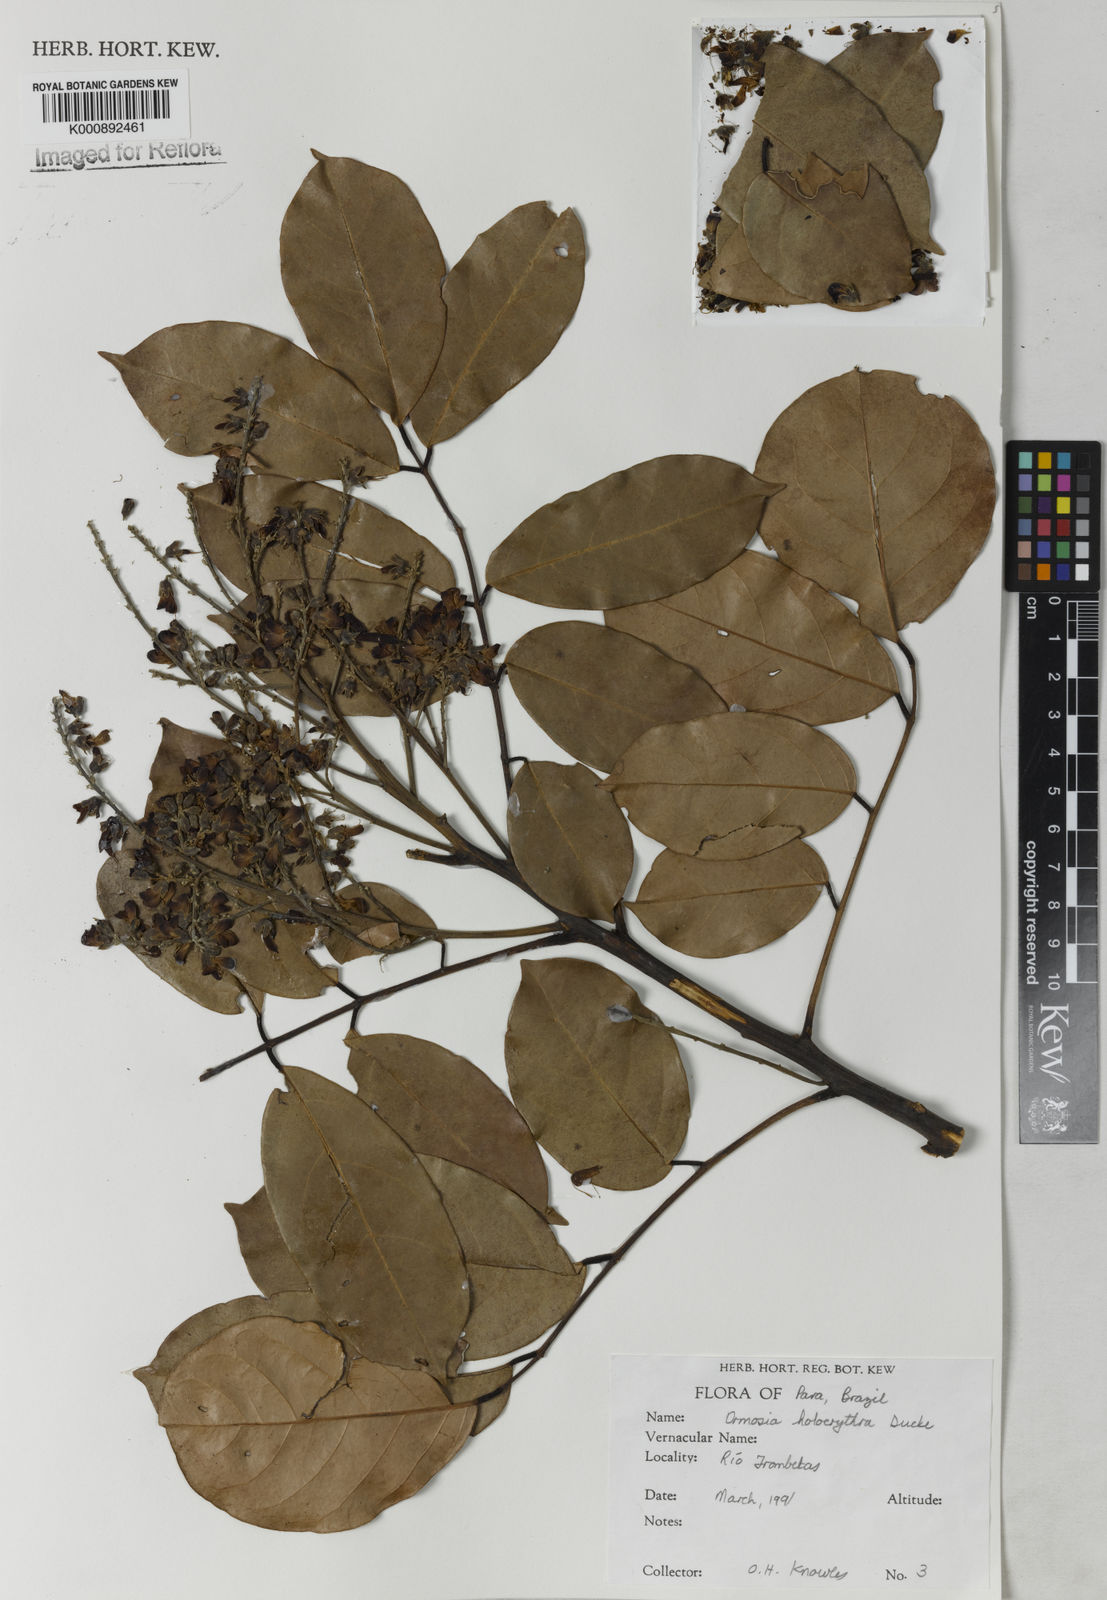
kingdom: Plantae
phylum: Tracheophyta
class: Magnoliopsida
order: Fabales
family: Fabaceae
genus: Ormosia
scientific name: Ormosia holerythra
